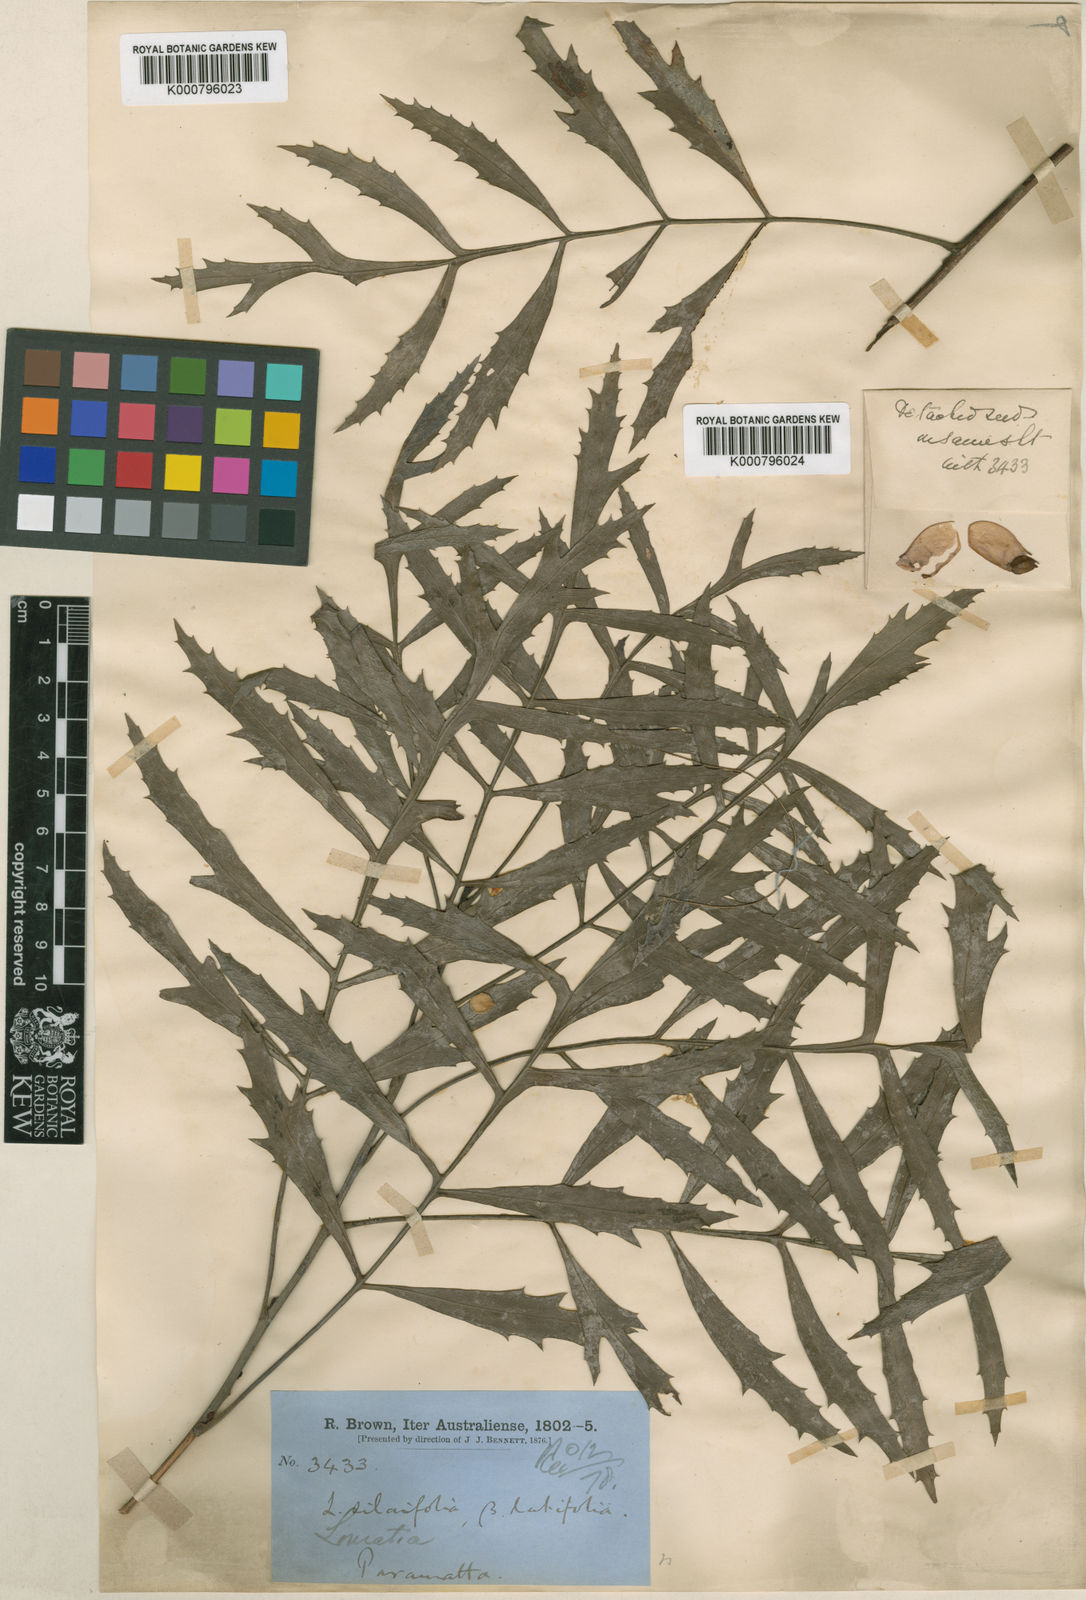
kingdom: Plantae
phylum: Tracheophyta
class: Magnoliopsida
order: Proteales
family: Proteaceae
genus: Lomatia
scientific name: Lomatia silaifolia
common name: Crinklebush
